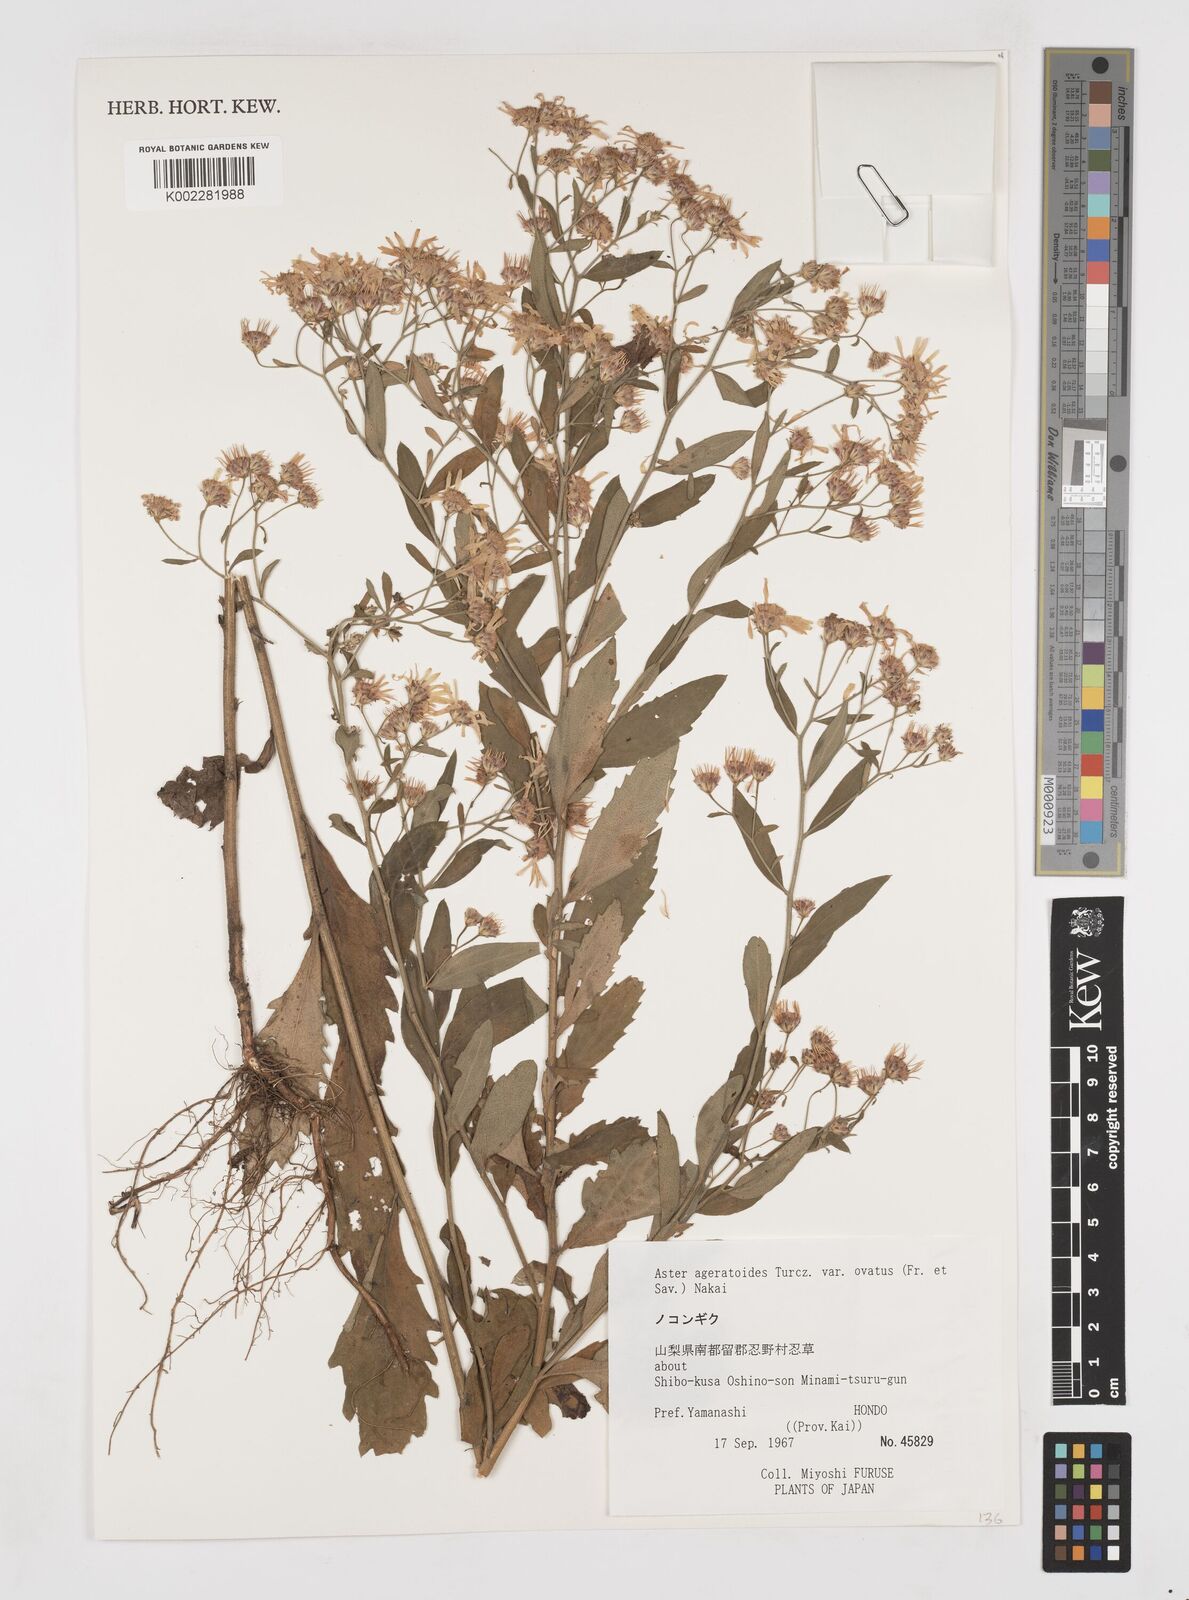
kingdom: Plantae
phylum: Tracheophyta
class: Magnoliopsida
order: Asterales
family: Asteraceae
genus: Galatella
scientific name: Galatella sedifolia
